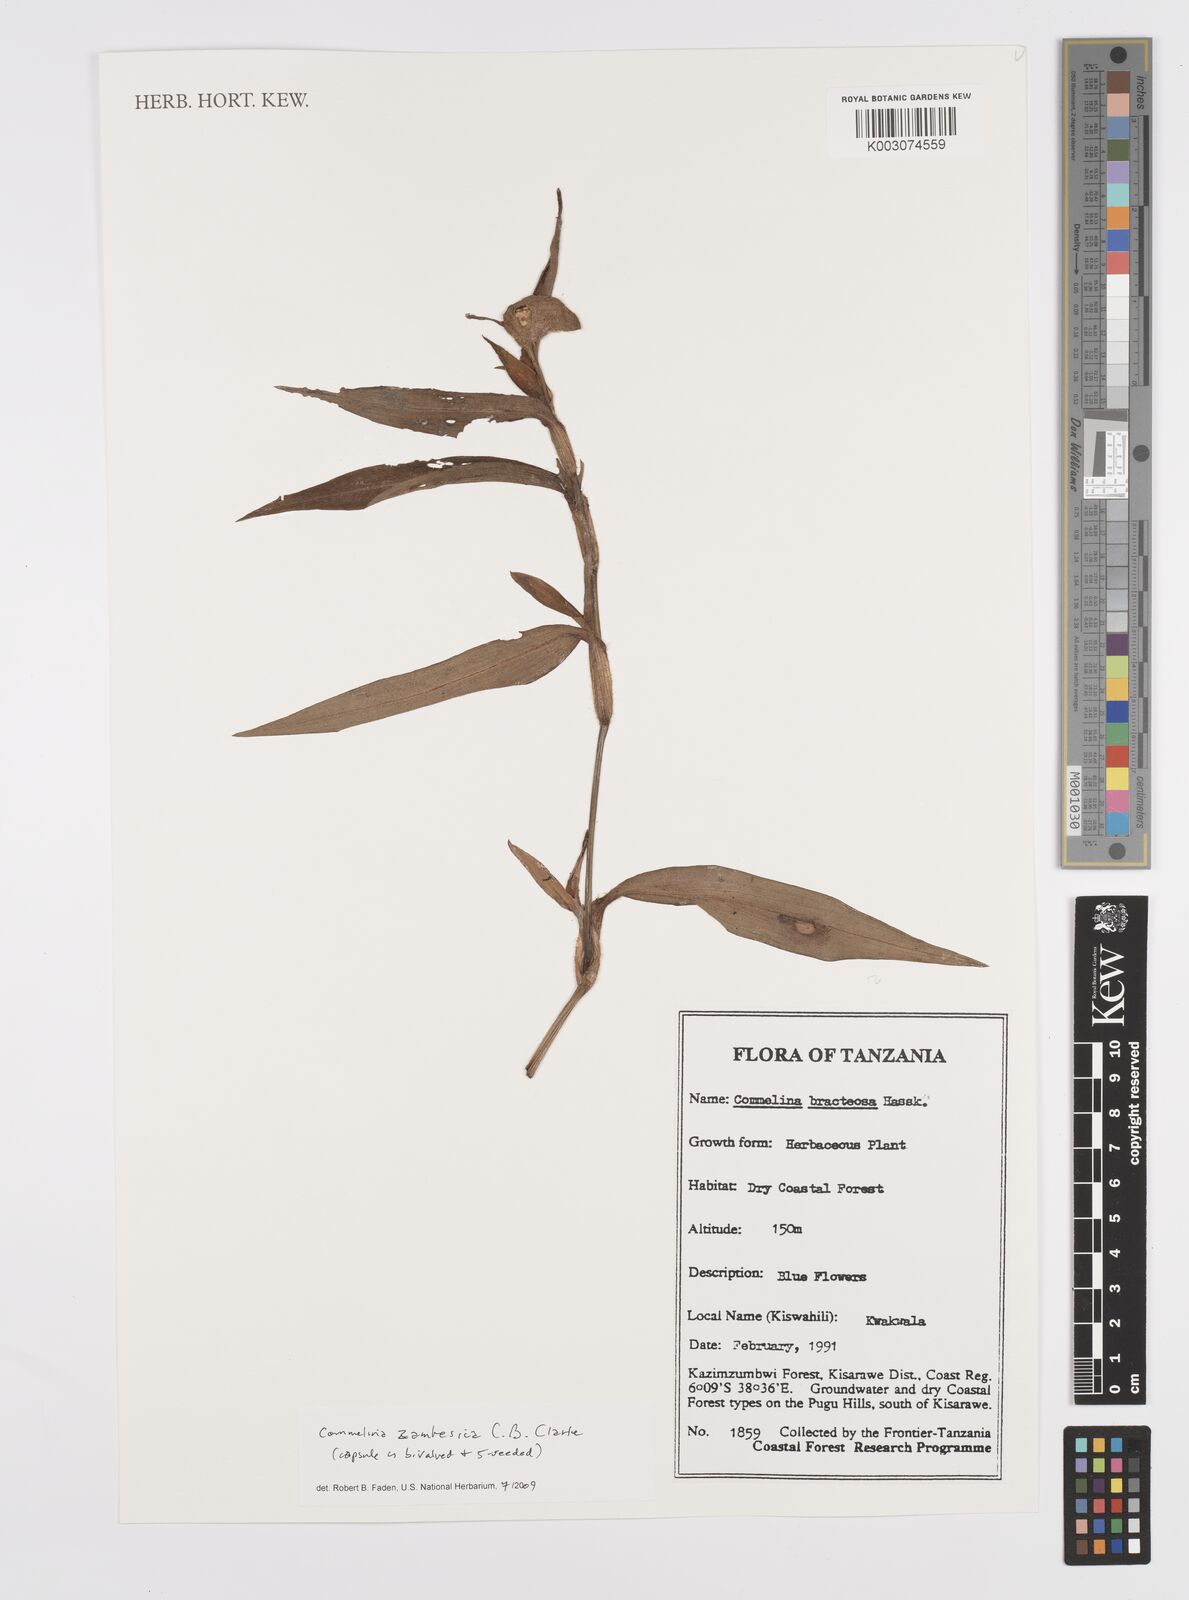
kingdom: Plantae
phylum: Tracheophyta
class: Liliopsida
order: Commelinales
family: Commelinaceae
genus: Commelina
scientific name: Commelina zambesica
